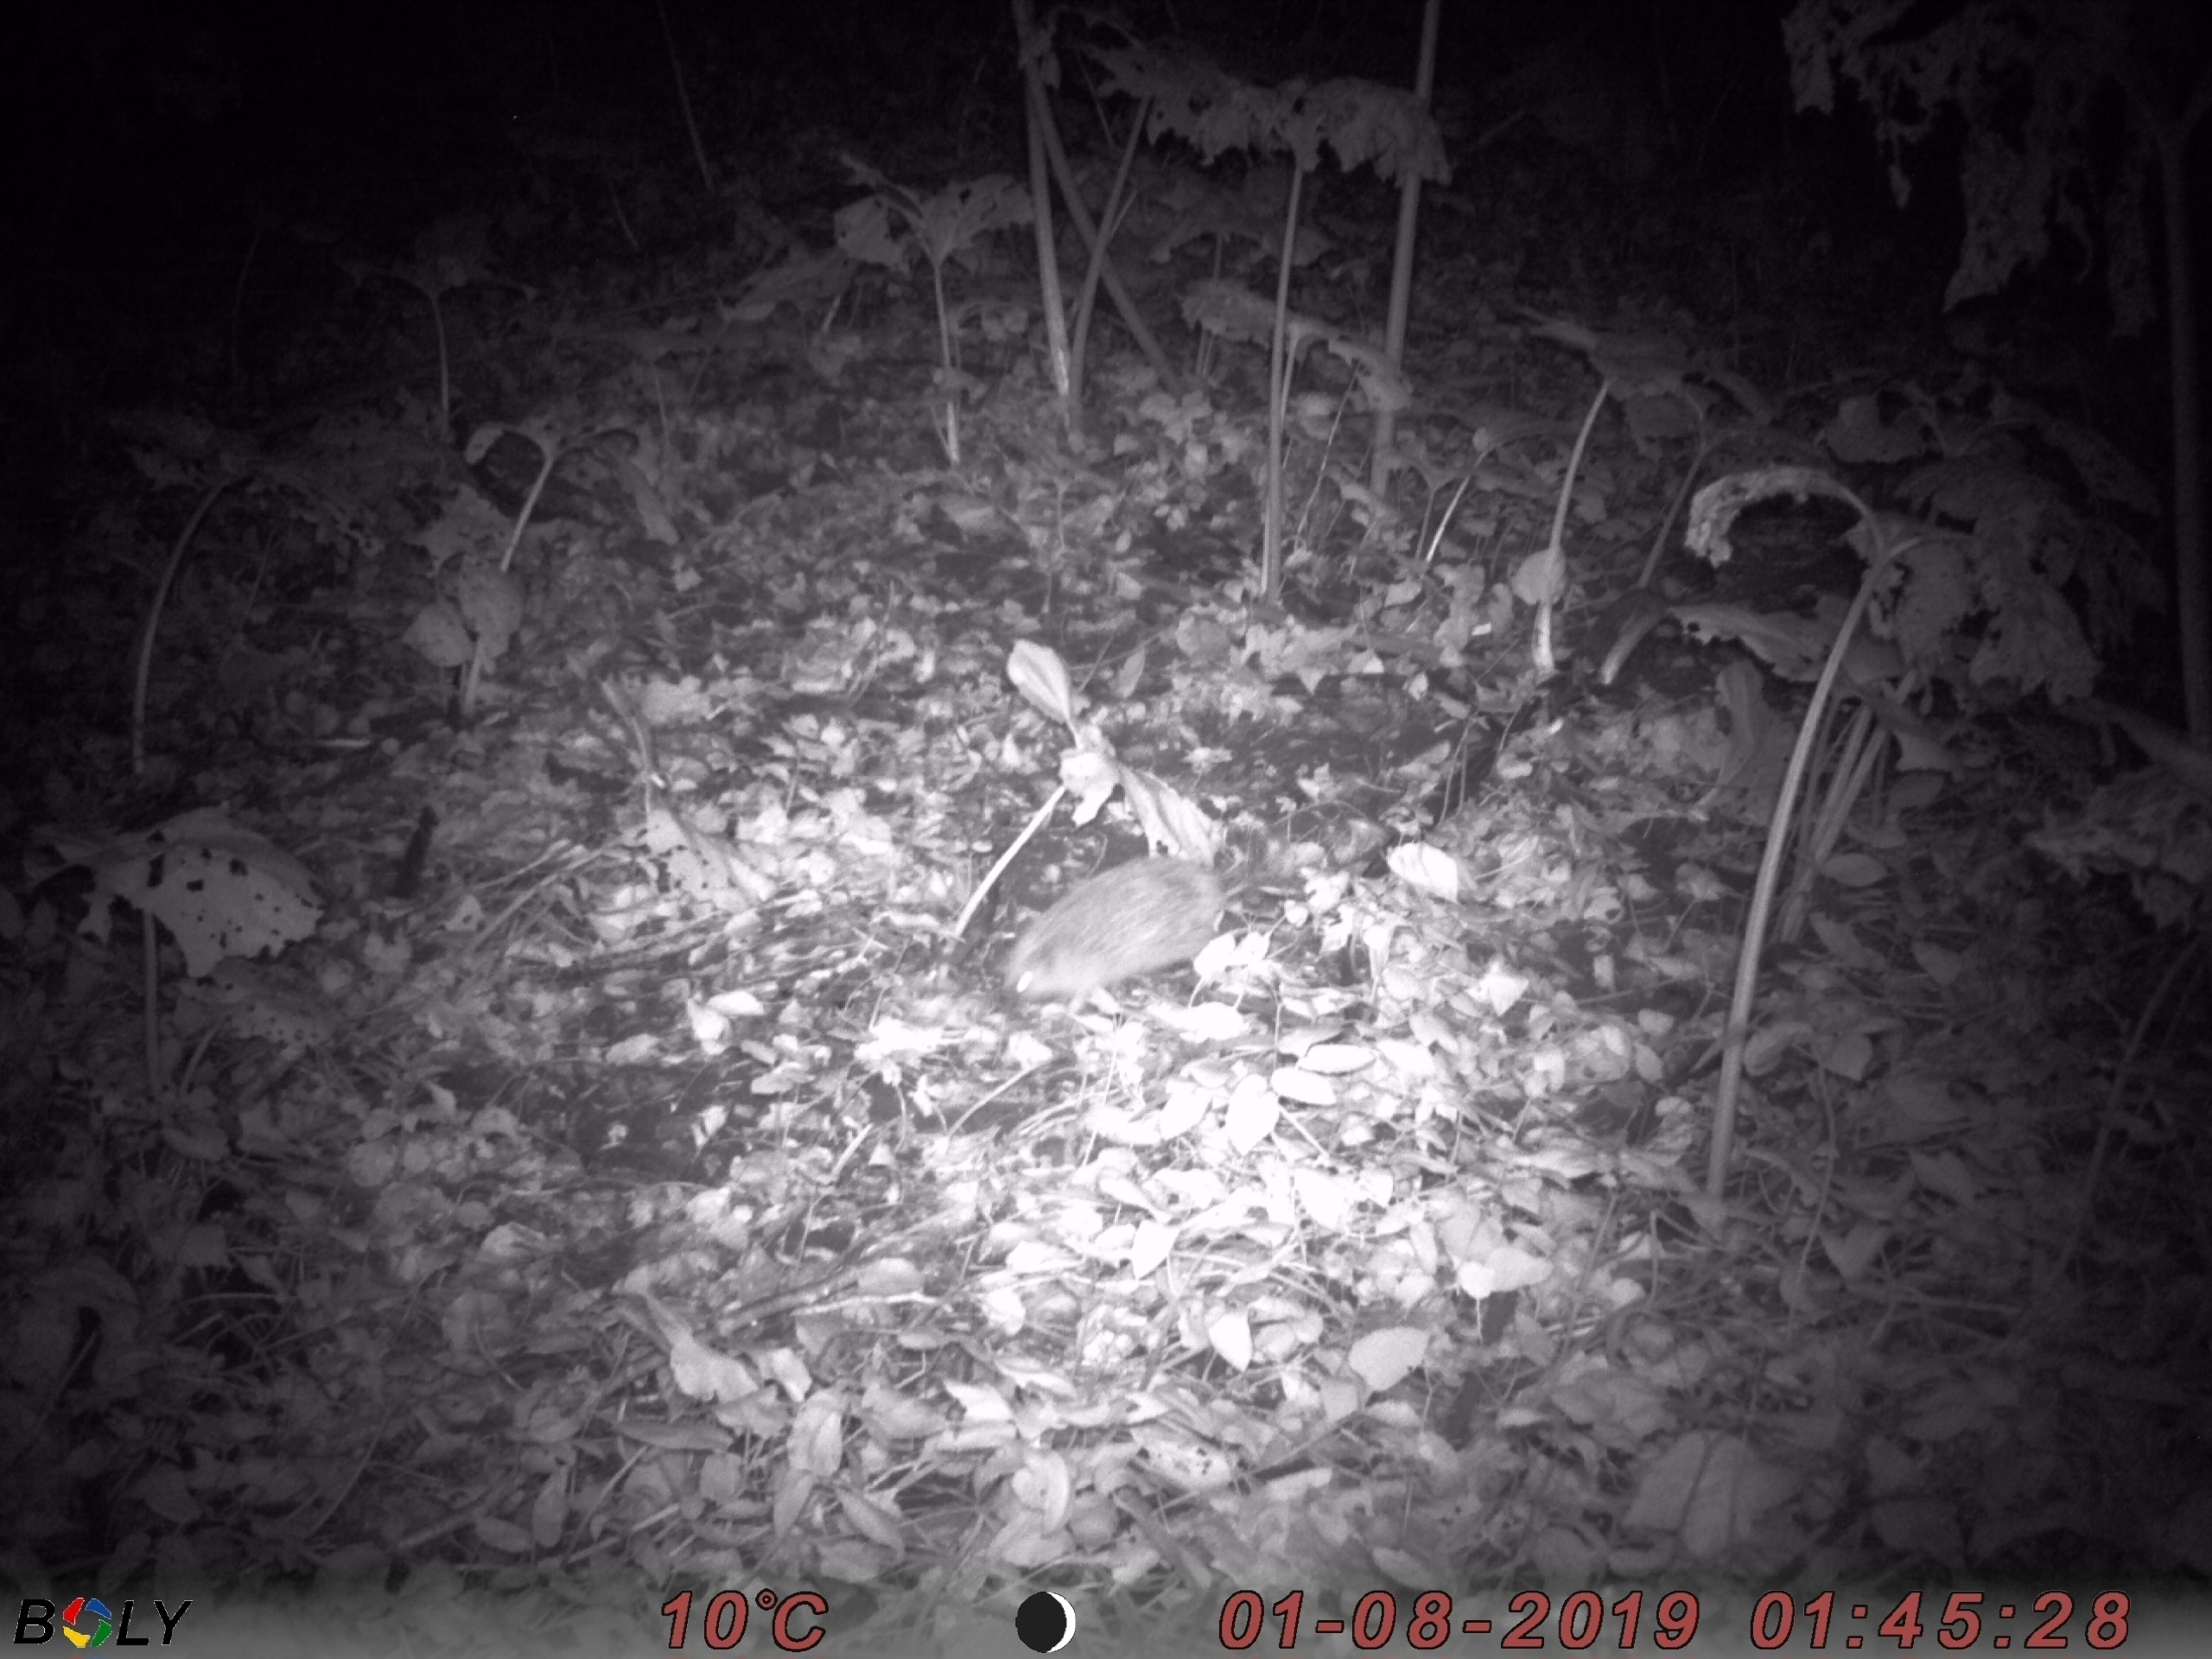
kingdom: Animalia
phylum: Chordata
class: Mammalia
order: Erinaceomorpha
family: Erinaceidae
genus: Erinaceus
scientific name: Erinaceus europaeus
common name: Pindsvin
